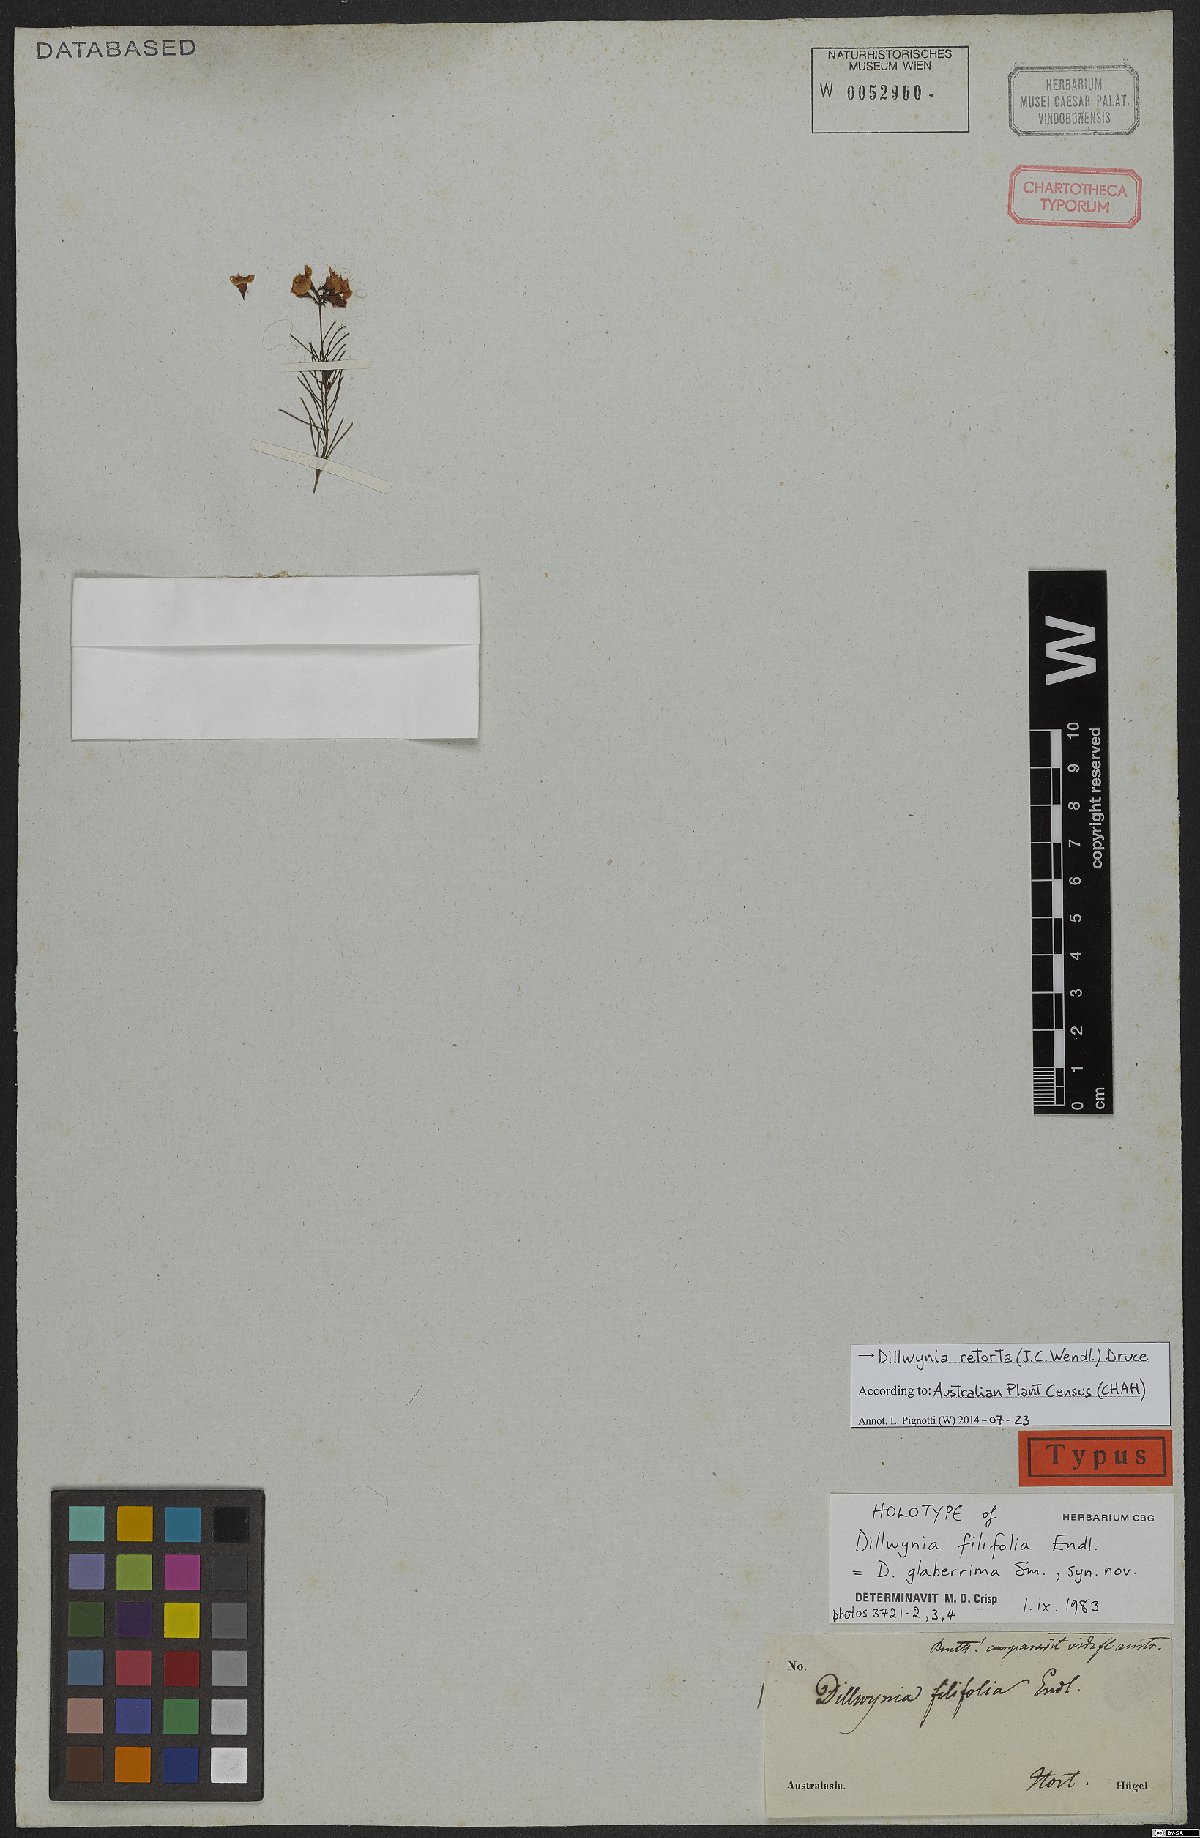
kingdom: Plantae
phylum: Tracheophyta
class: Magnoliopsida
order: Fabales
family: Fabaceae
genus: Dillwynia
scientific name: Dillwynia retorta
